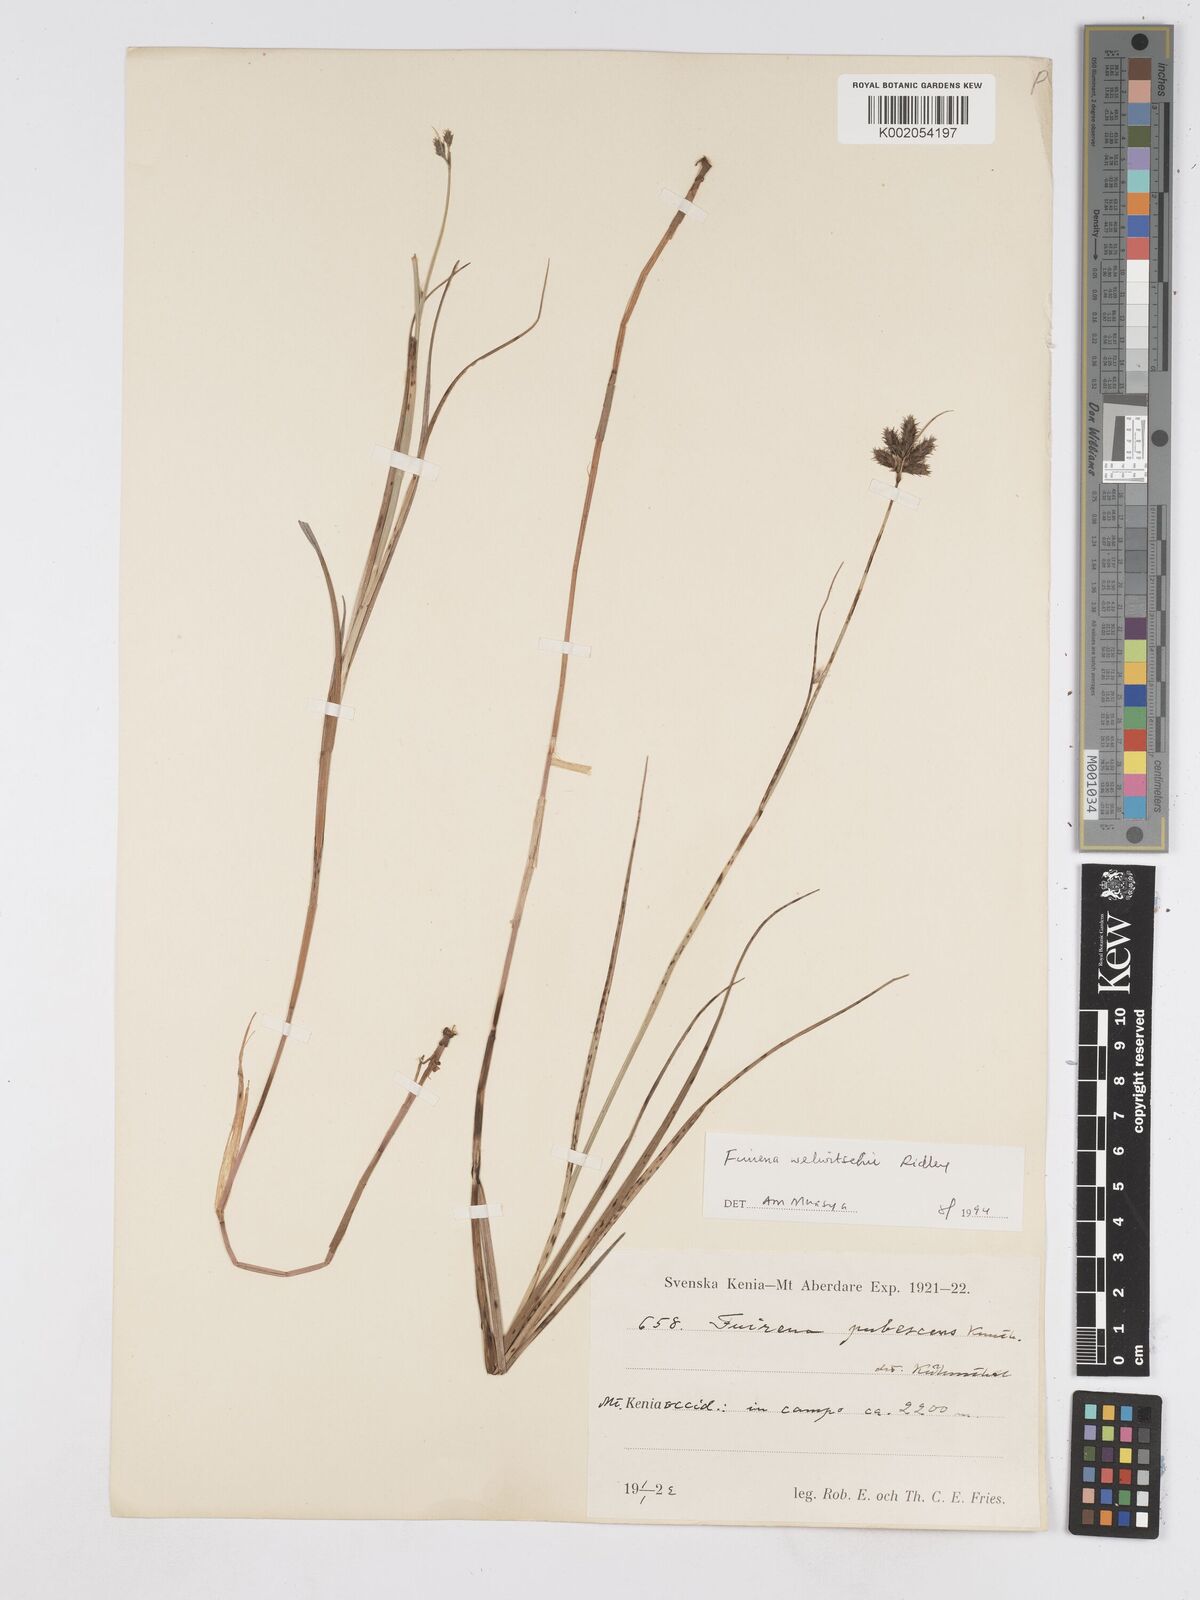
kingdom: Plantae
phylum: Tracheophyta
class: Liliopsida
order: Poales
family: Cyperaceae
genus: Fuirena
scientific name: Fuirena welwitschii
